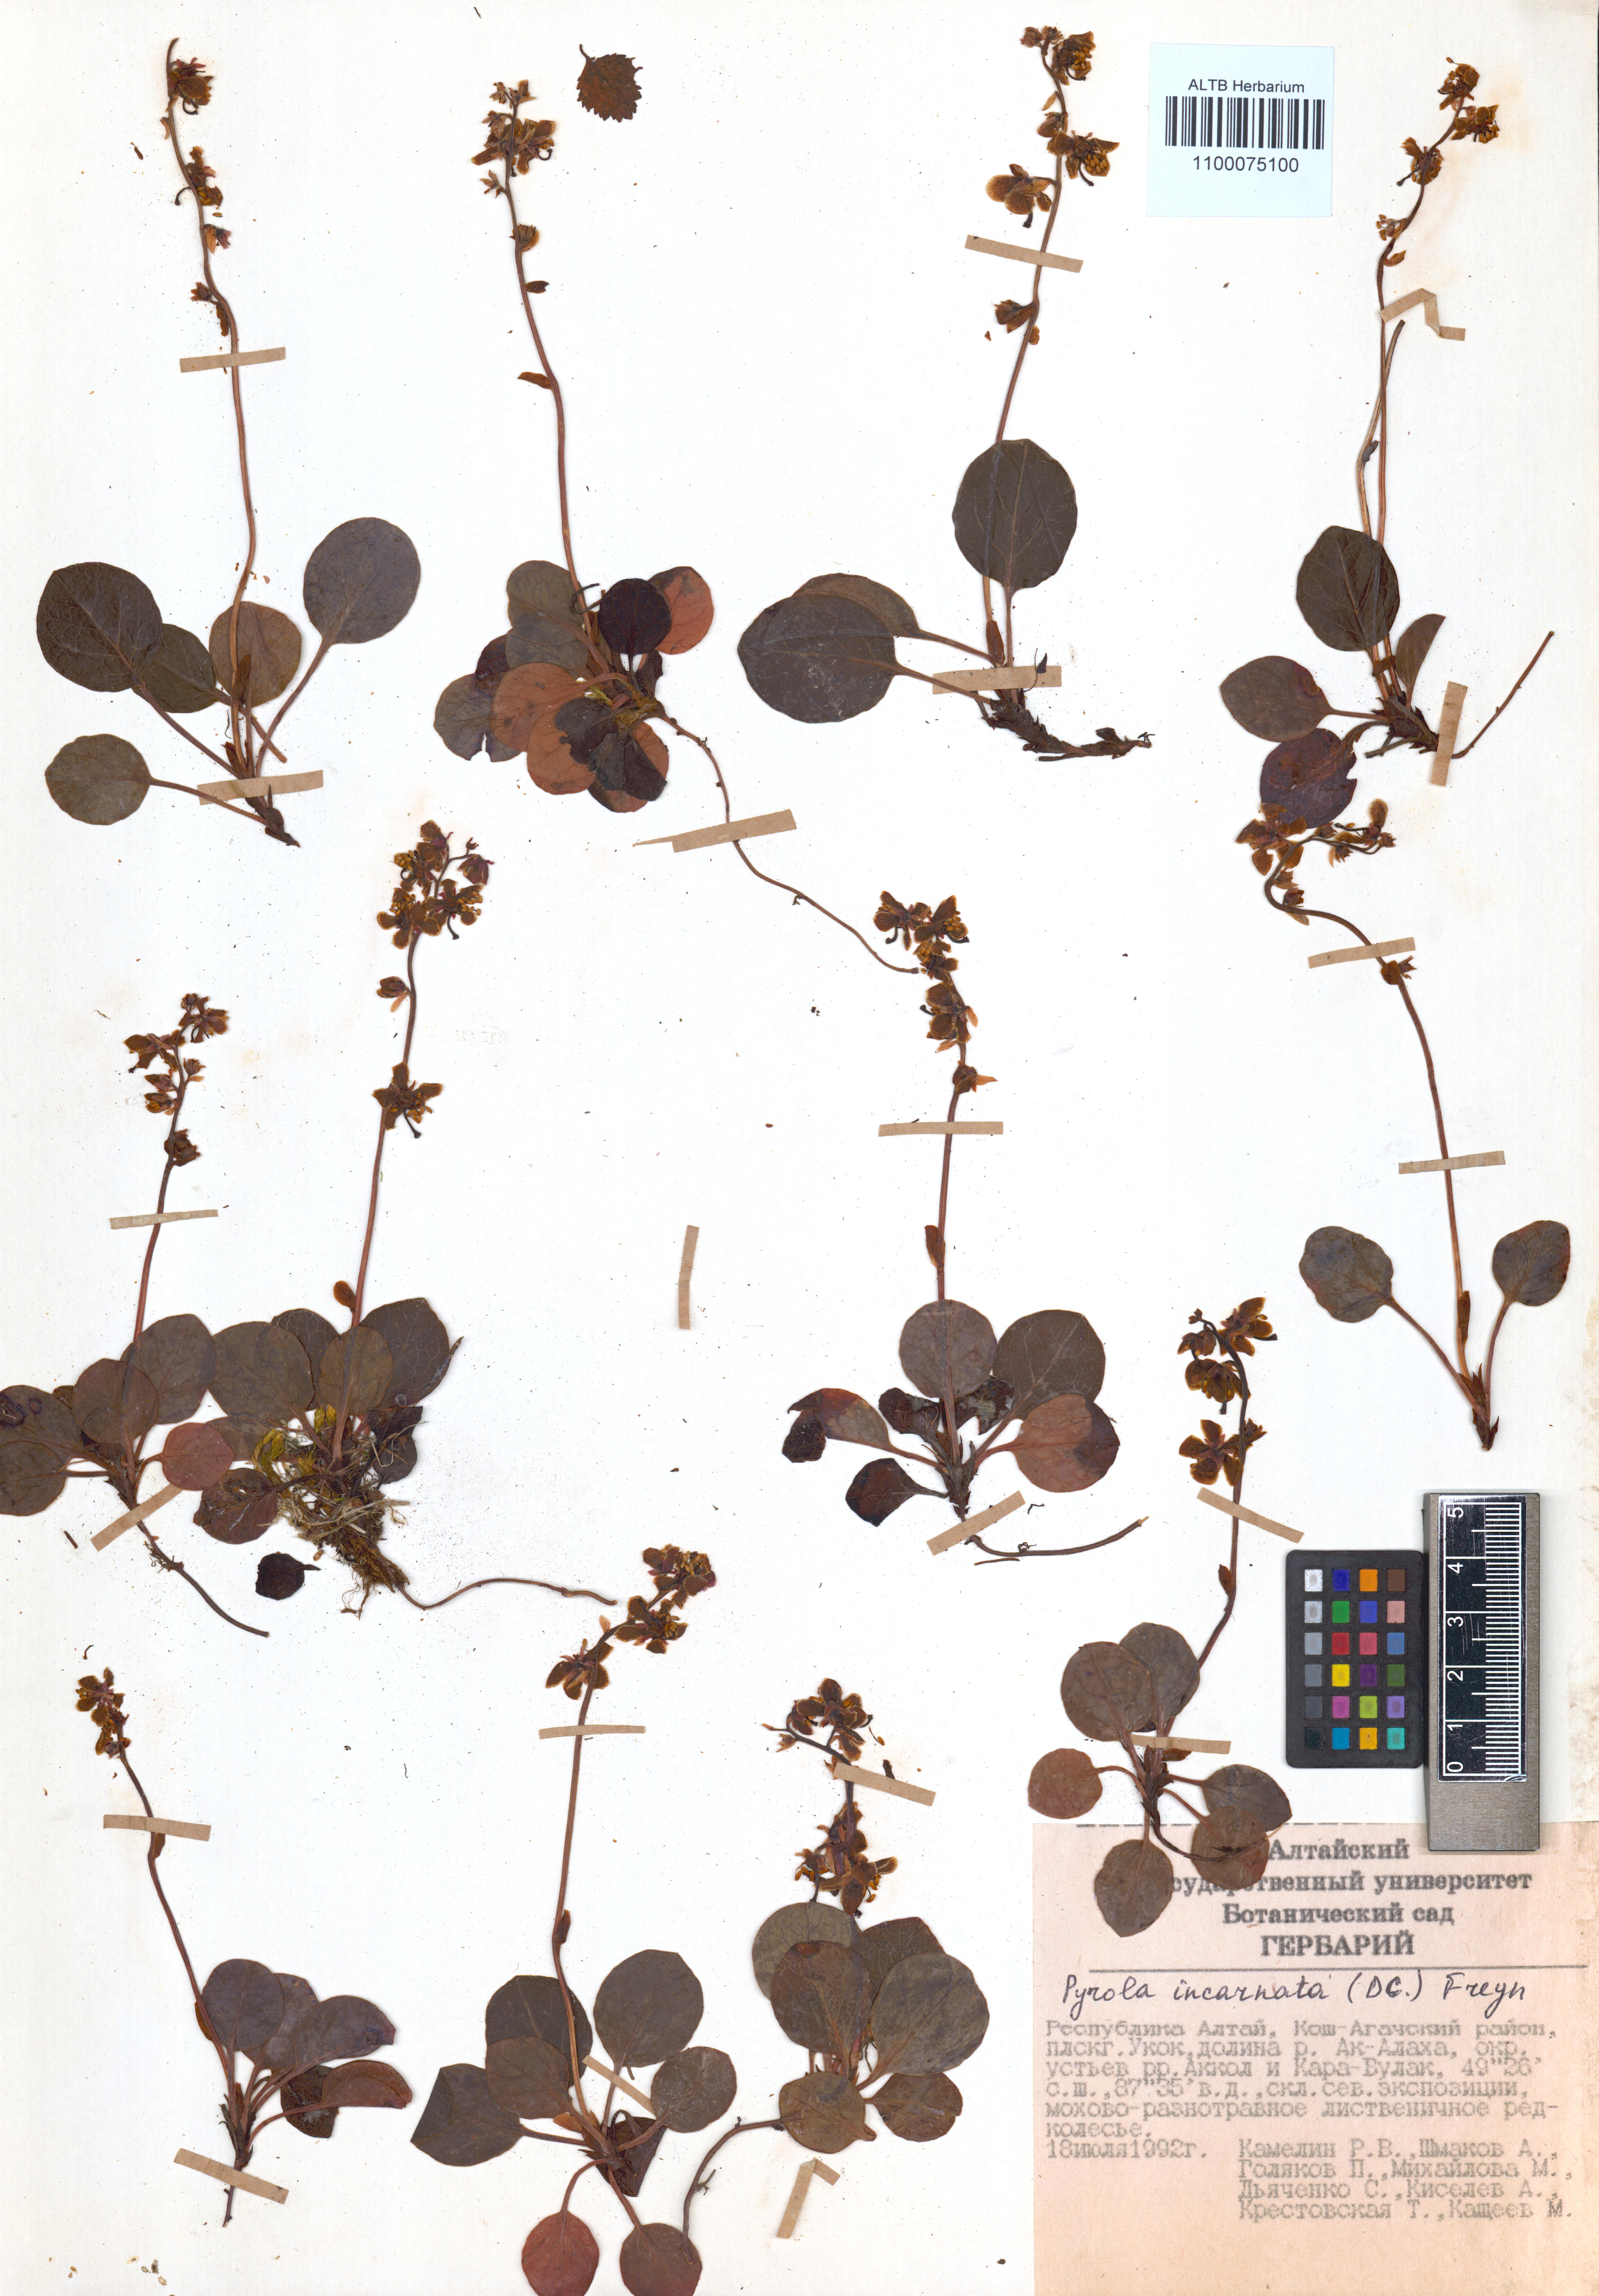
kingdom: Plantae
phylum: Tracheophyta
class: Magnoliopsida
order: Ericales
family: Ericaceae
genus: Pyrola
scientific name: Pyrola asarifolia
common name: Bog wintergreen
